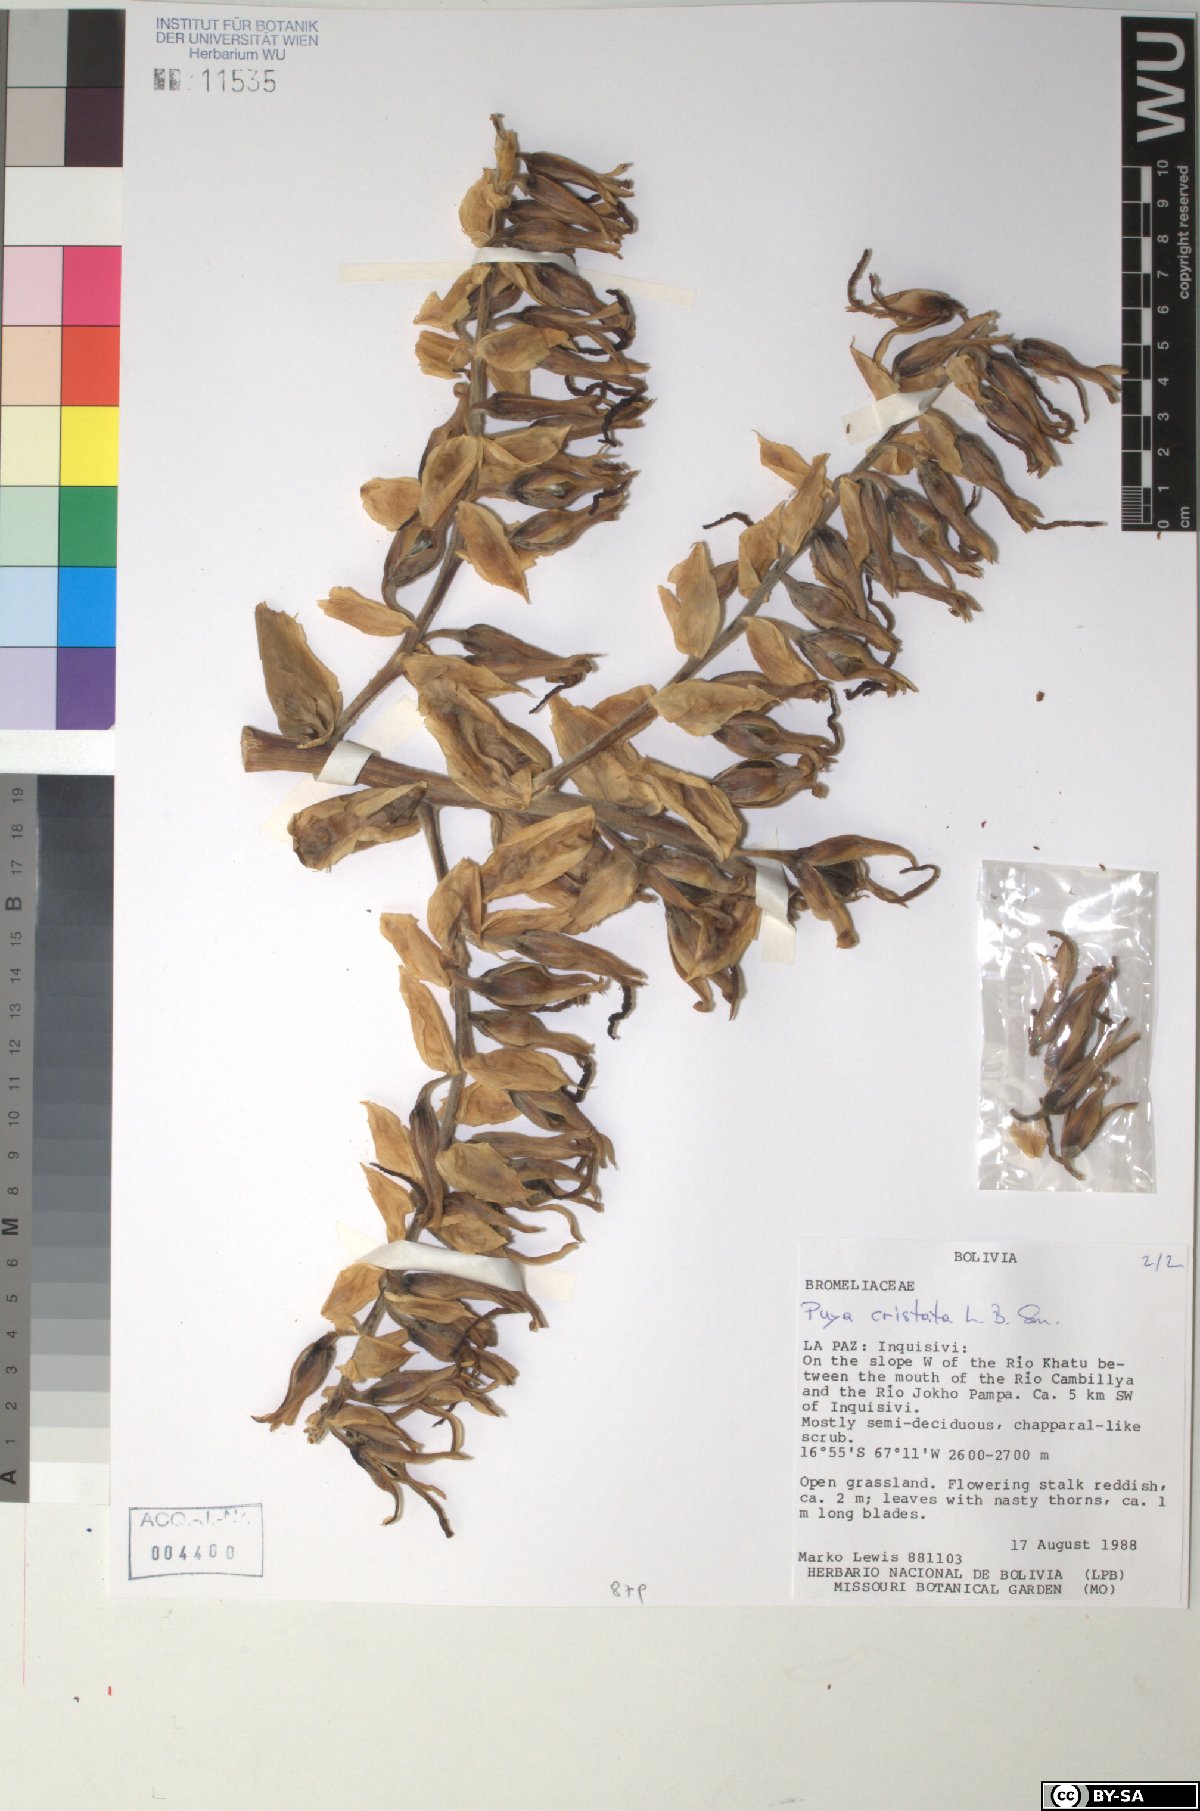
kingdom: Plantae
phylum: Tracheophyta
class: Liliopsida
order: Poales
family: Bromeliaceae
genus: Puya
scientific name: Puya cristata
